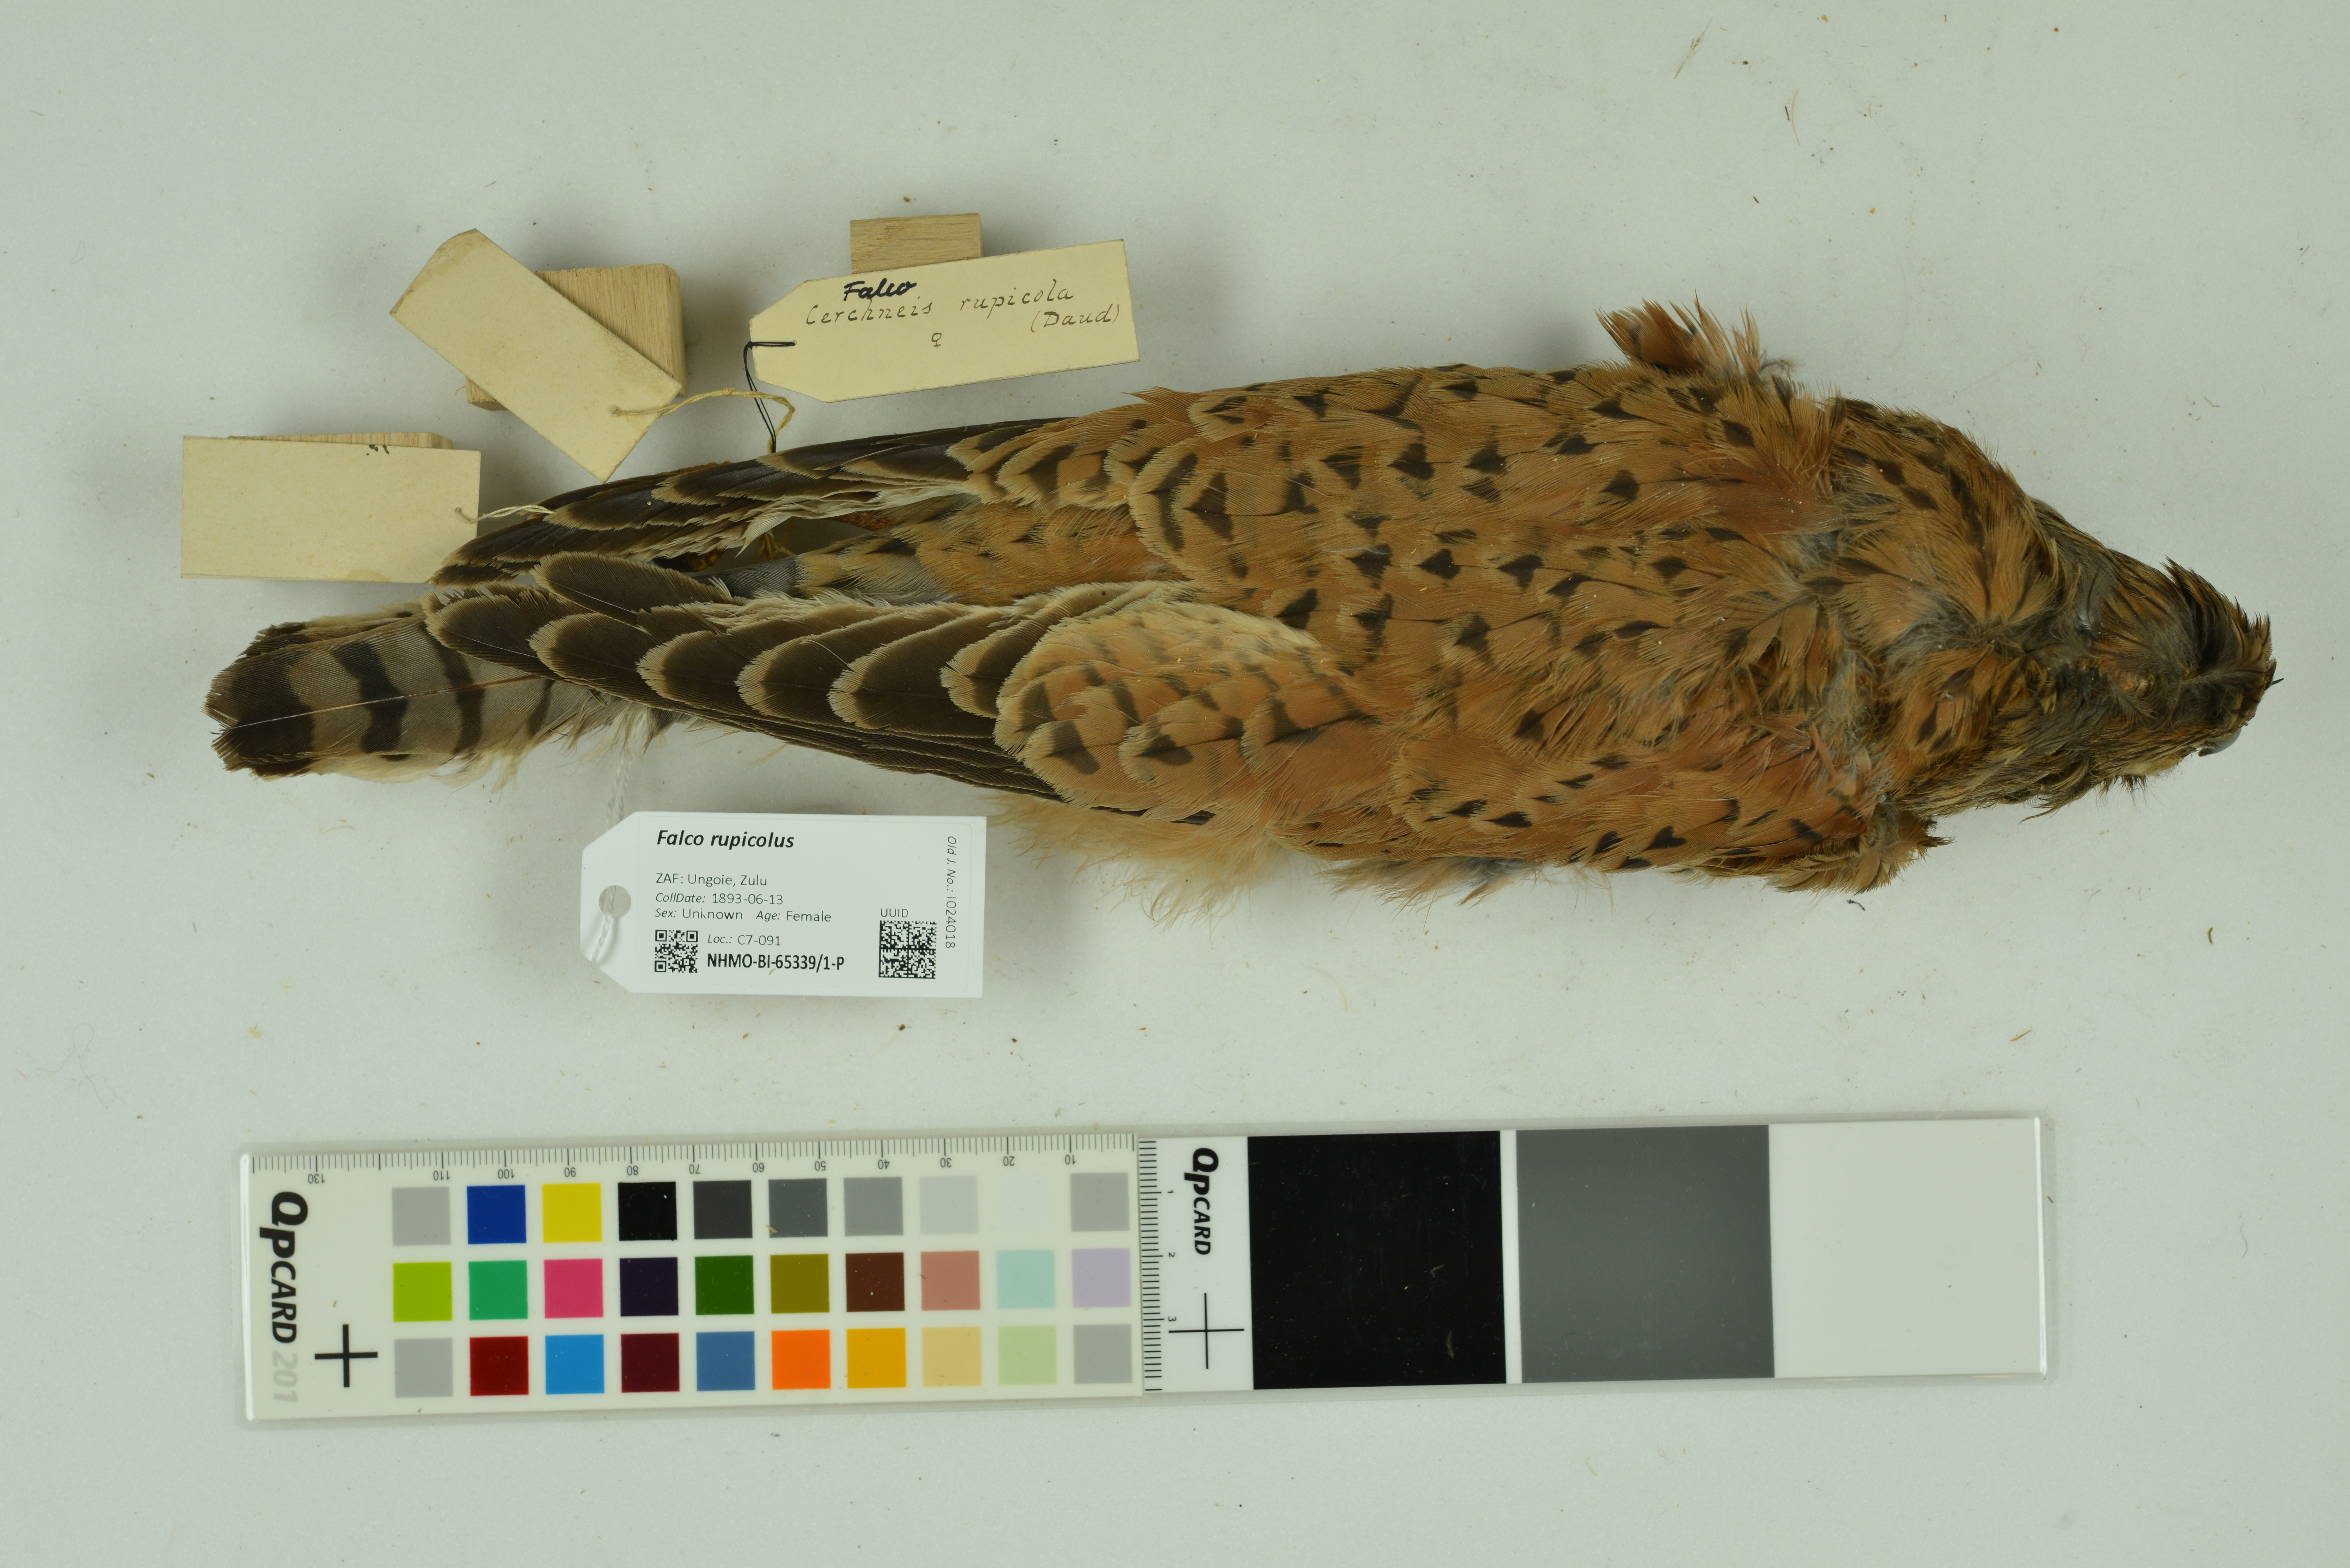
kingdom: Animalia
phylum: Chordata
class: Aves
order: Falconiformes
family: Falconidae
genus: Falco
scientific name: Falco rupicolus
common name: Rock kestrel
